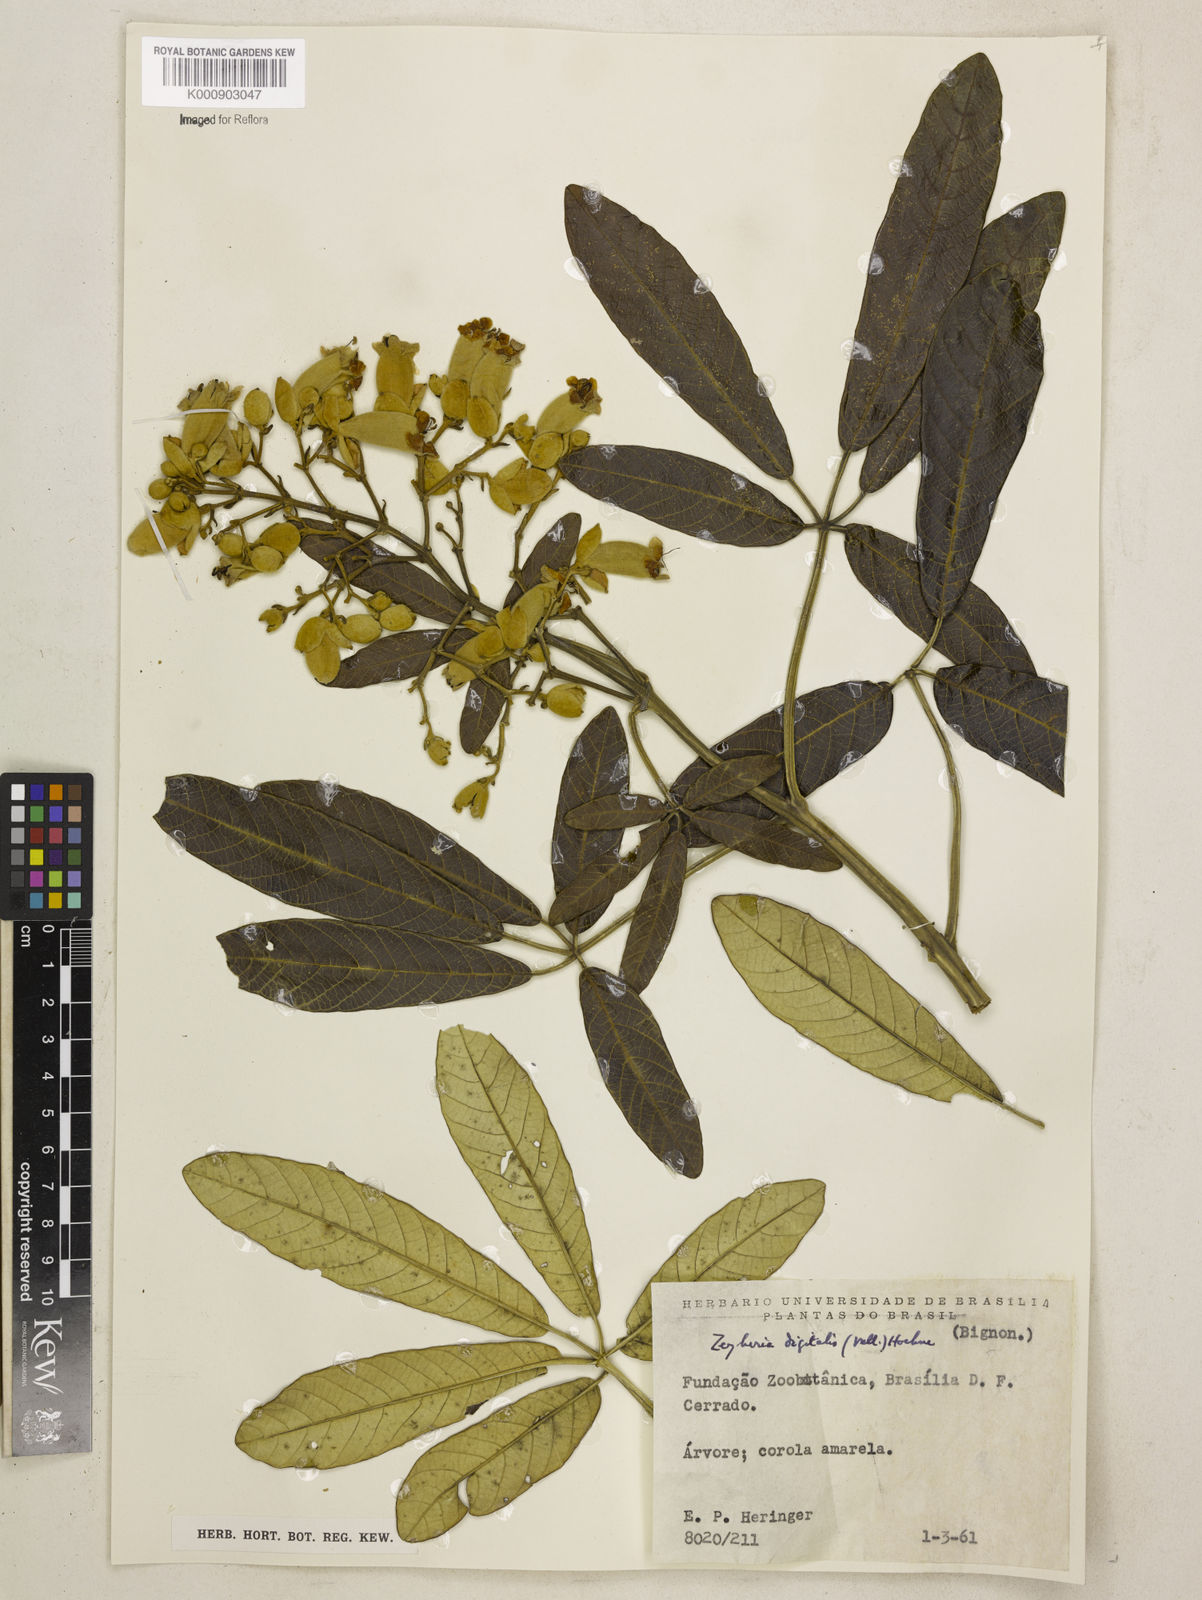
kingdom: Plantae
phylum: Tracheophyta
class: Magnoliopsida
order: Lamiales
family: Bignoniaceae
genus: Zeyheria
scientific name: Zeyheria
